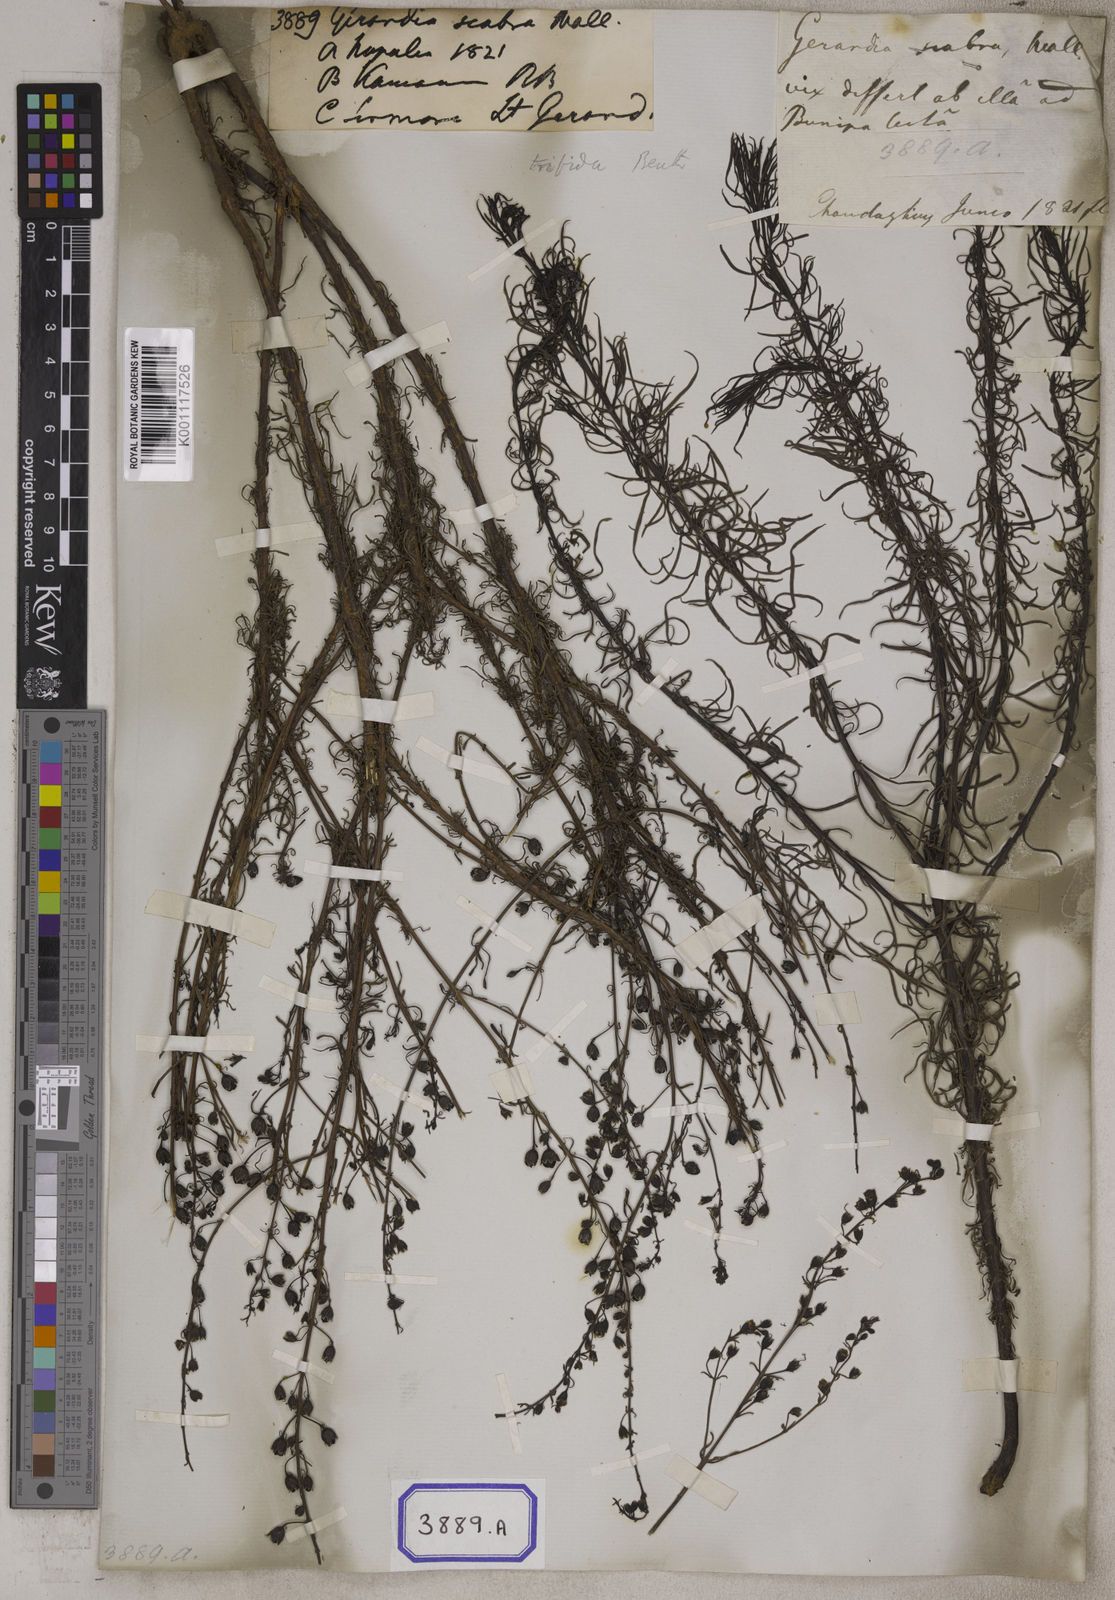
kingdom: Plantae
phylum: Tracheophyta
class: Magnoliopsida
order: Lamiales
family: Acanthaceae
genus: Stenandrium
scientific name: Stenandrium
